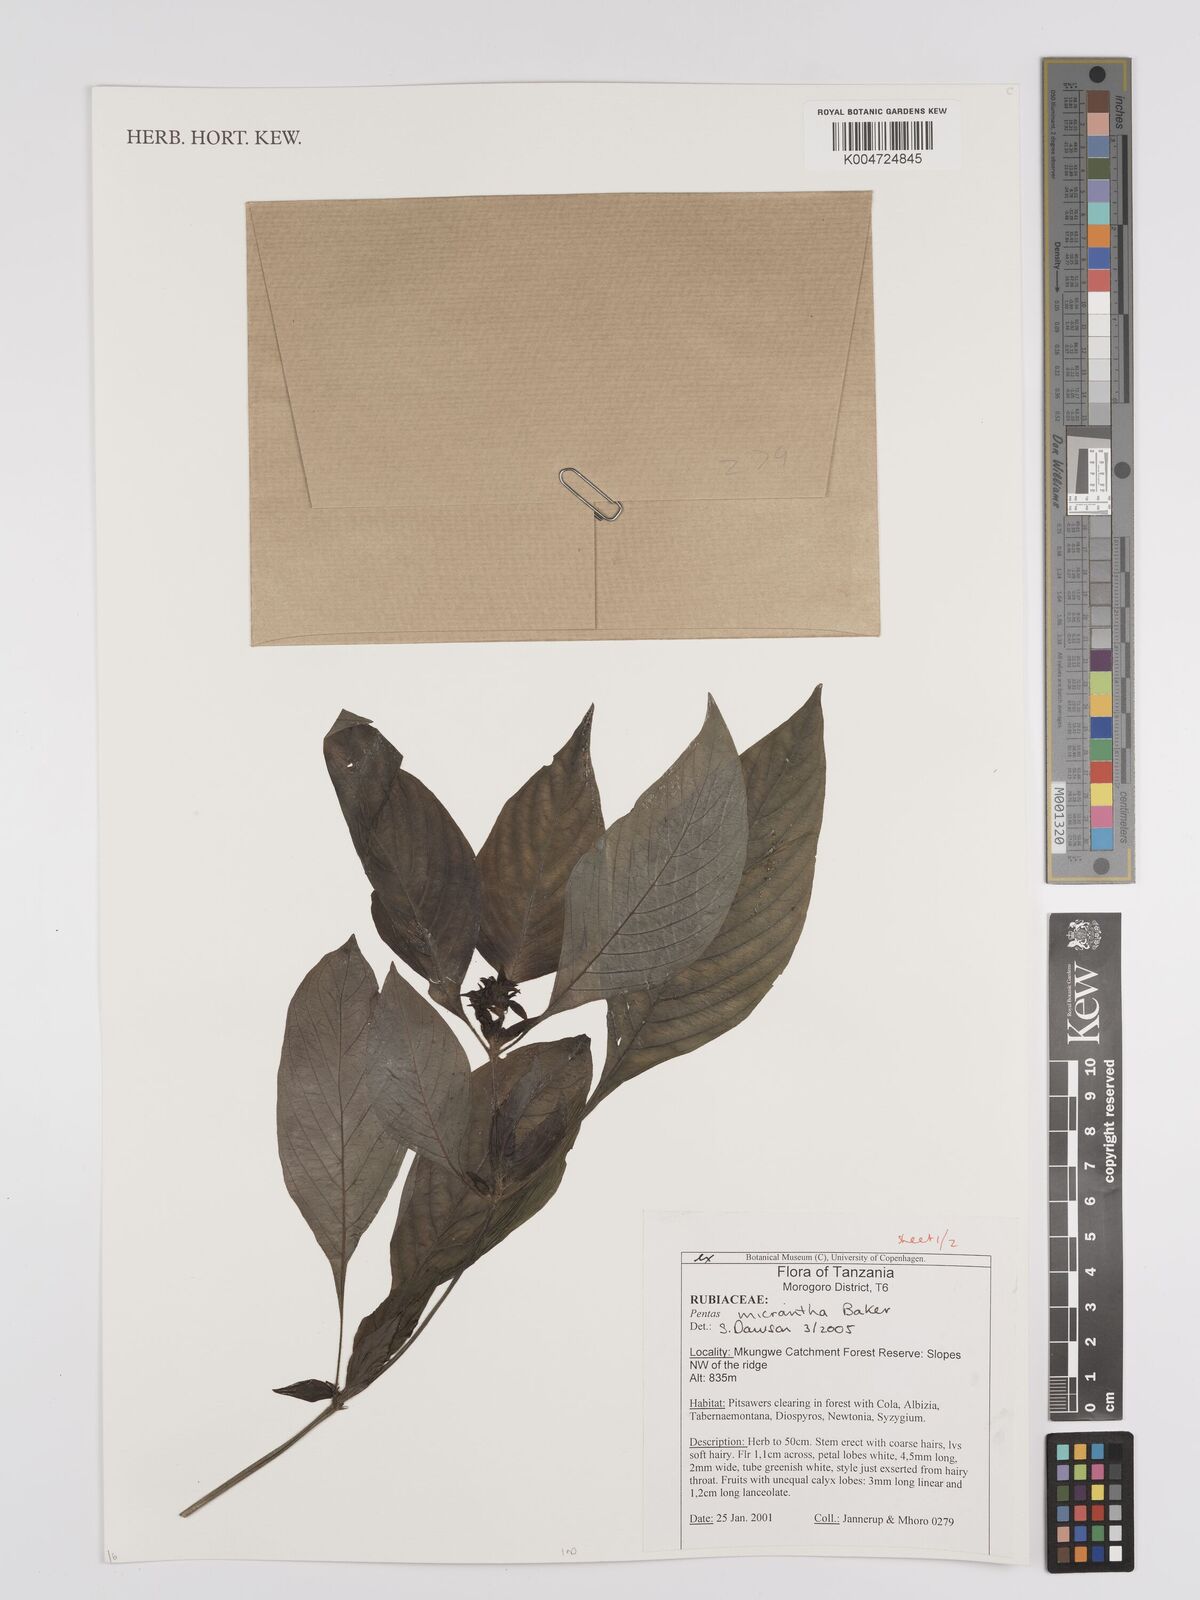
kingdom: Plantae
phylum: Tracheophyta
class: Magnoliopsida
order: Gentianales
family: Rubiaceae
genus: Pentas
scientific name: Pentas micrantha
